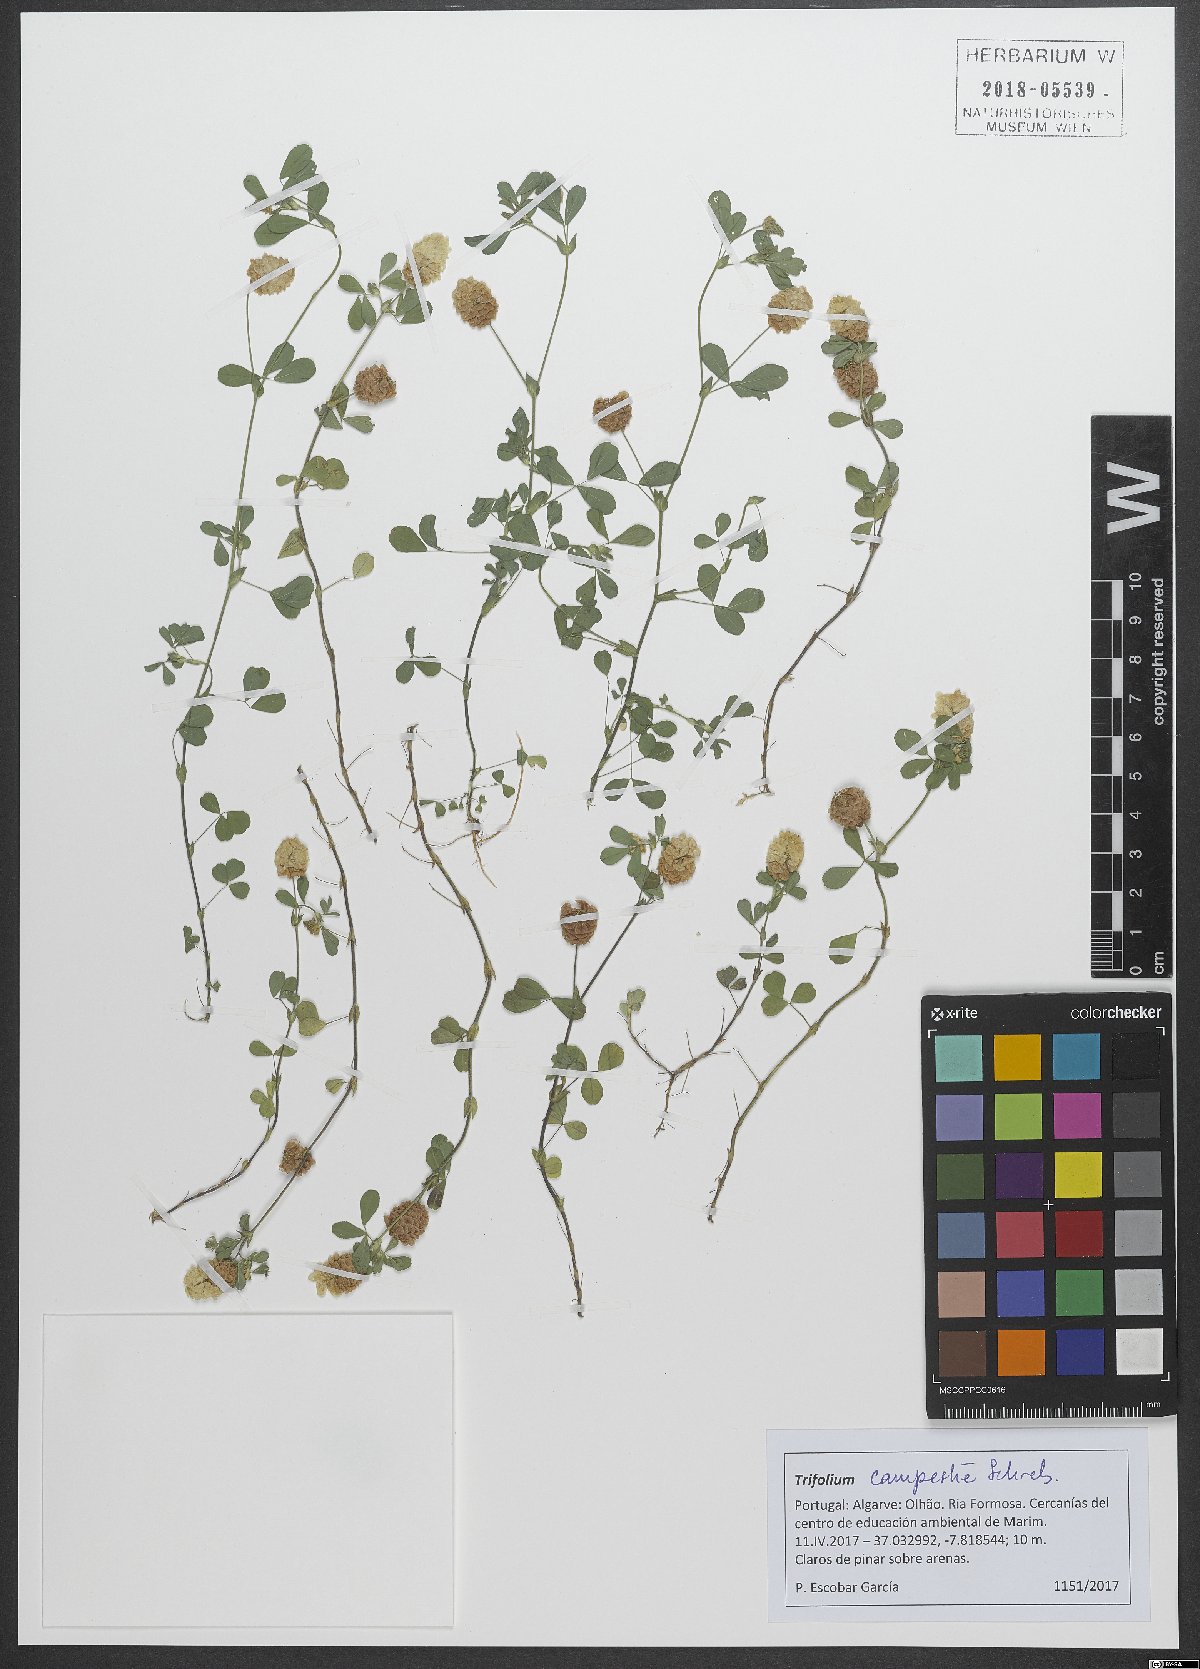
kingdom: Plantae
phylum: Tracheophyta
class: Magnoliopsida
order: Fabales
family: Fabaceae
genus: Trifolium
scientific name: Trifolium campestre
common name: Field clover
